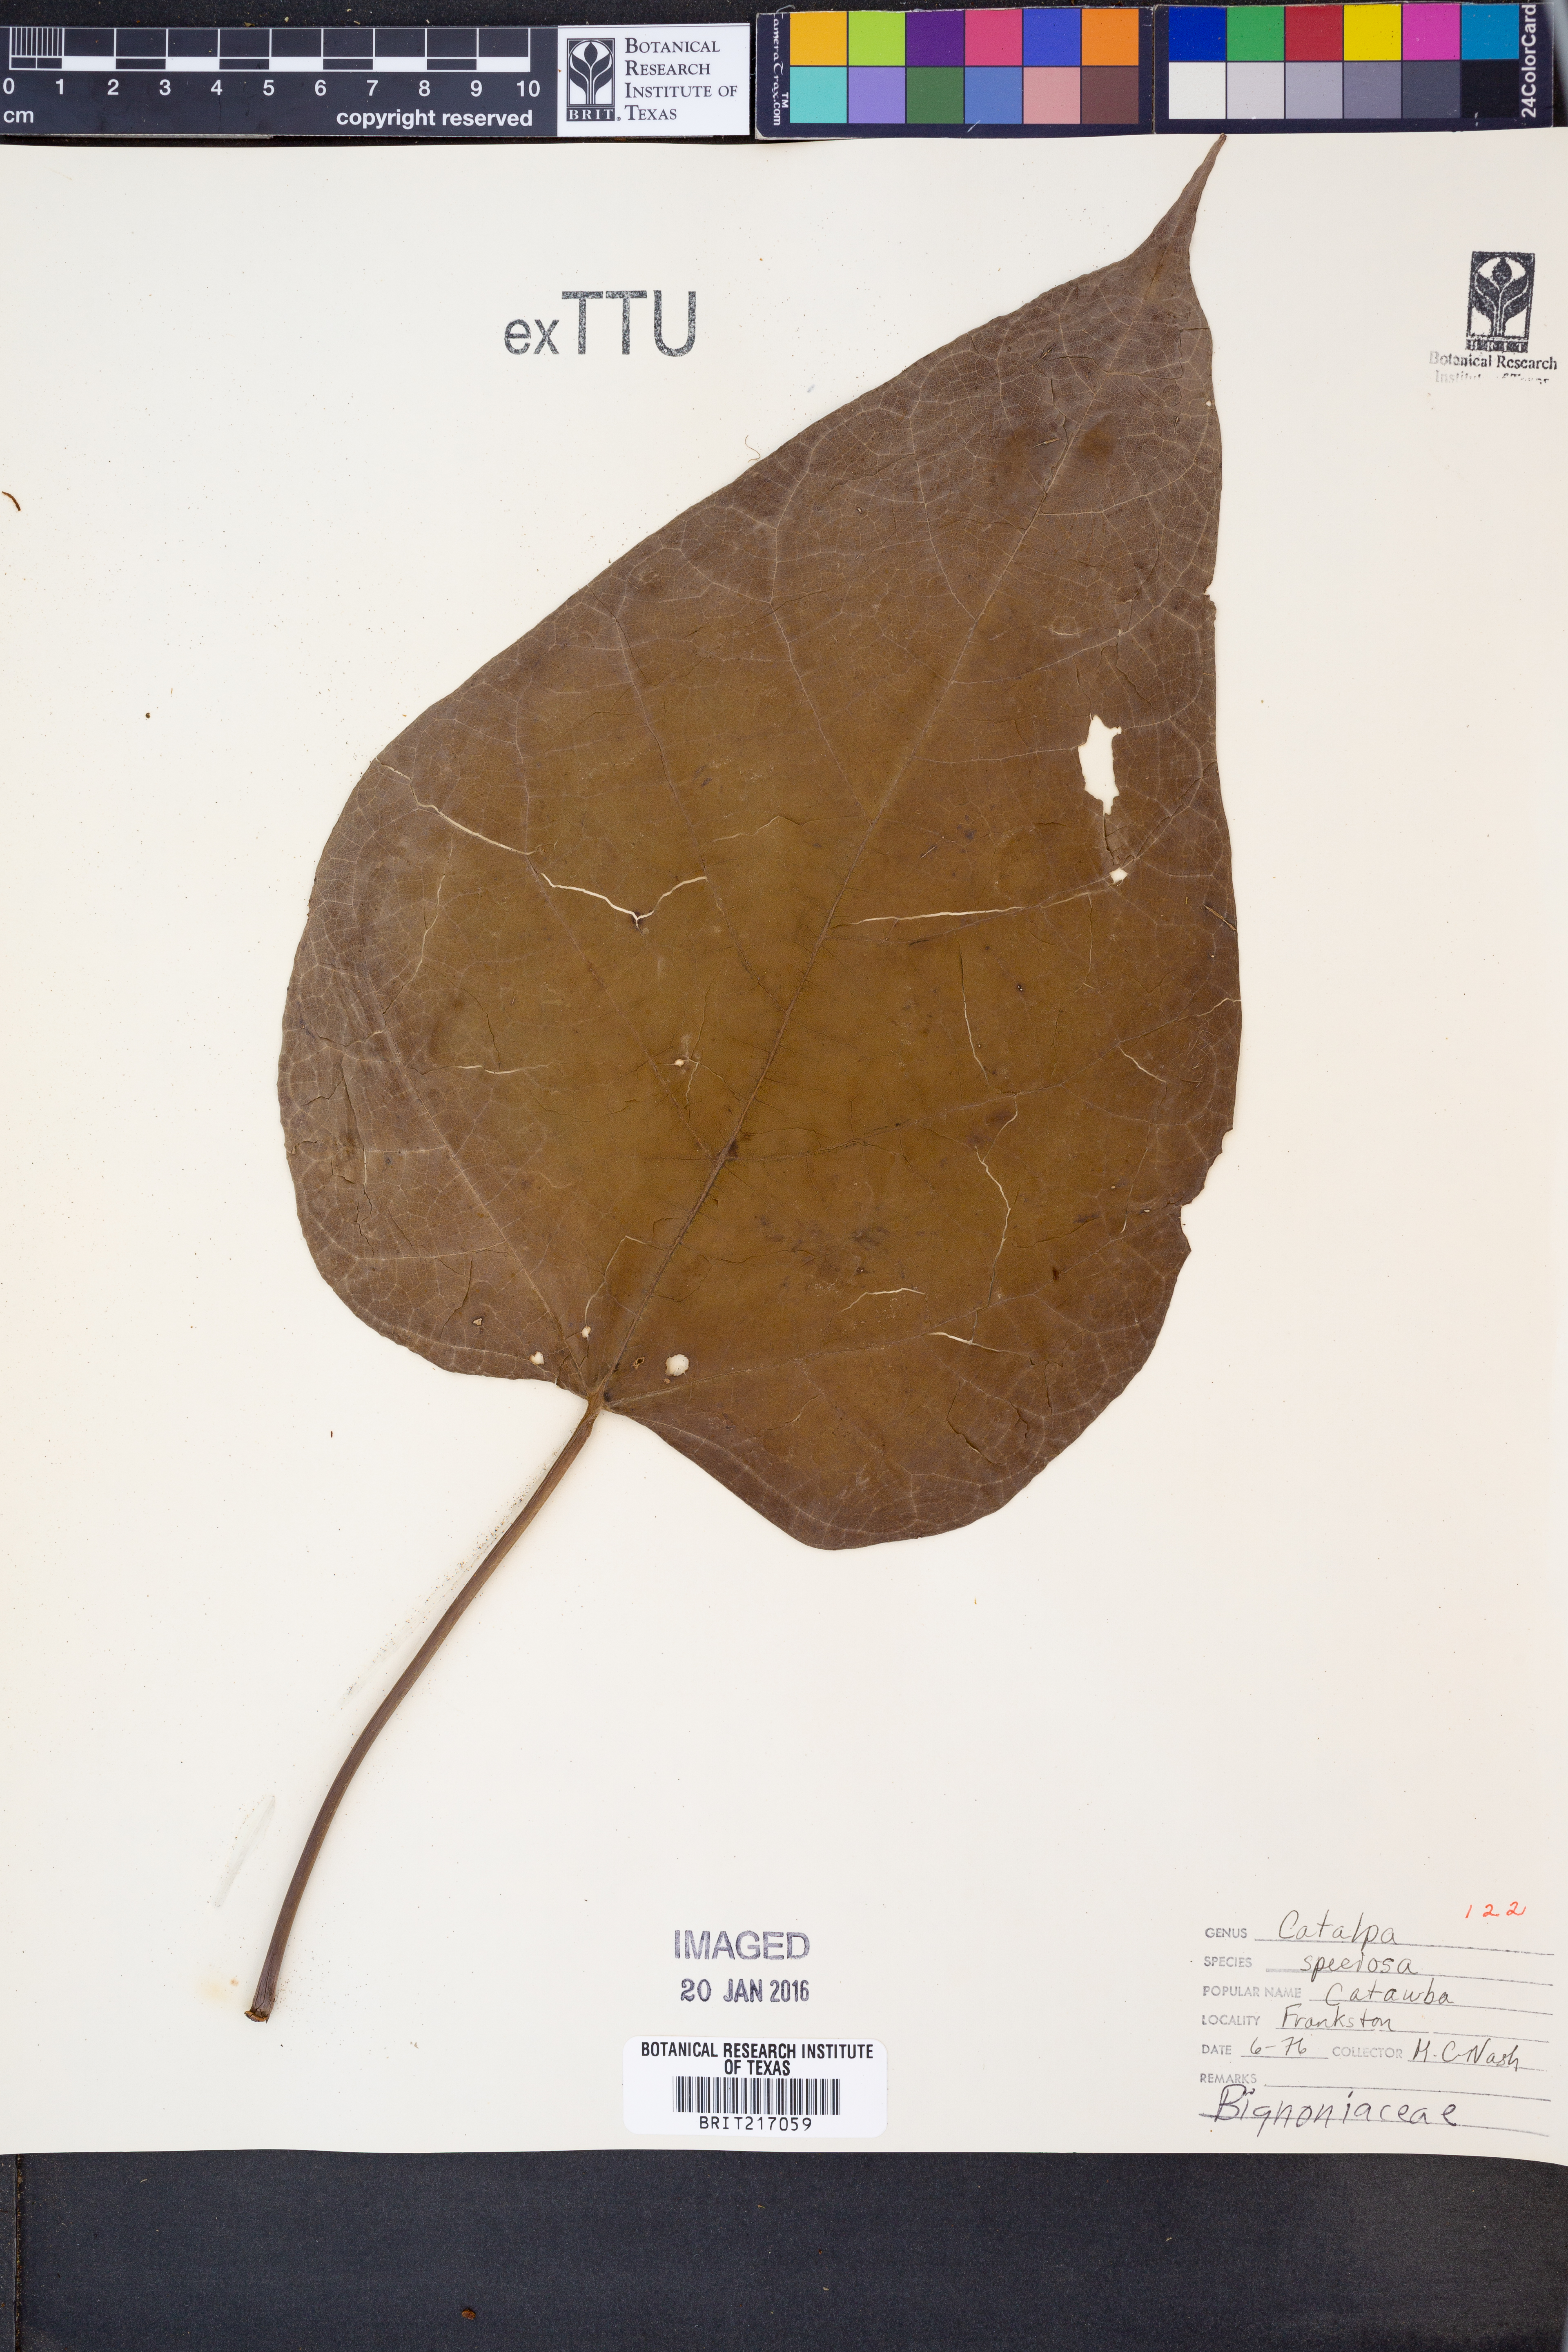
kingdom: Plantae
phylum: Tracheophyta
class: Magnoliopsida
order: Lamiales
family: Bignoniaceae
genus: Catalpa
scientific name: Catalpa speciosa
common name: Northern catalpa
